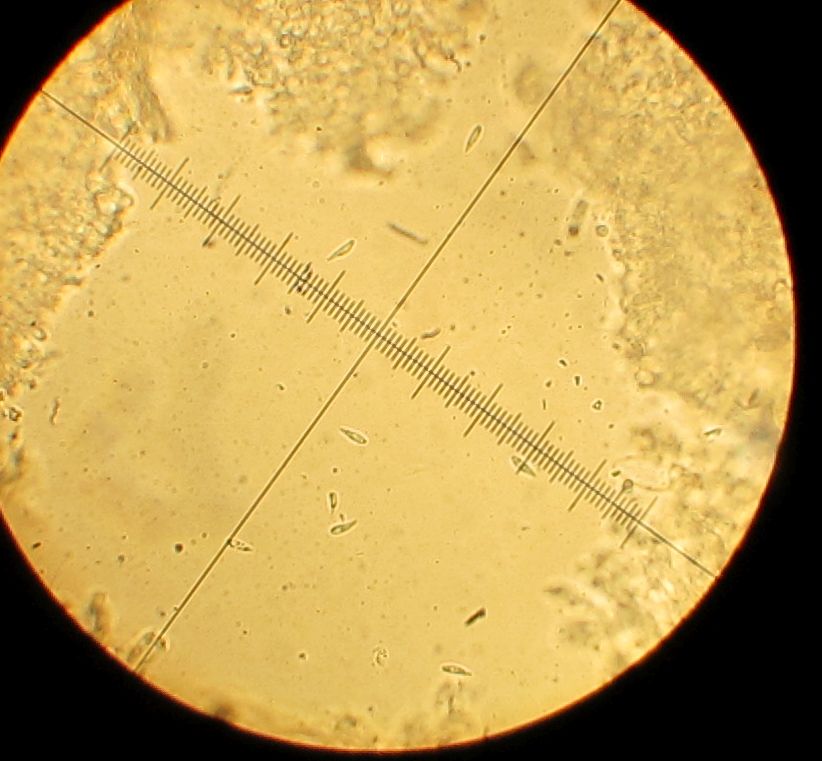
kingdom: Fungi
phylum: Basidiomycota
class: Agaricomycetes
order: Agaricales
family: Mycenaceae
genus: Hemimycena
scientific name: Hemimycena
